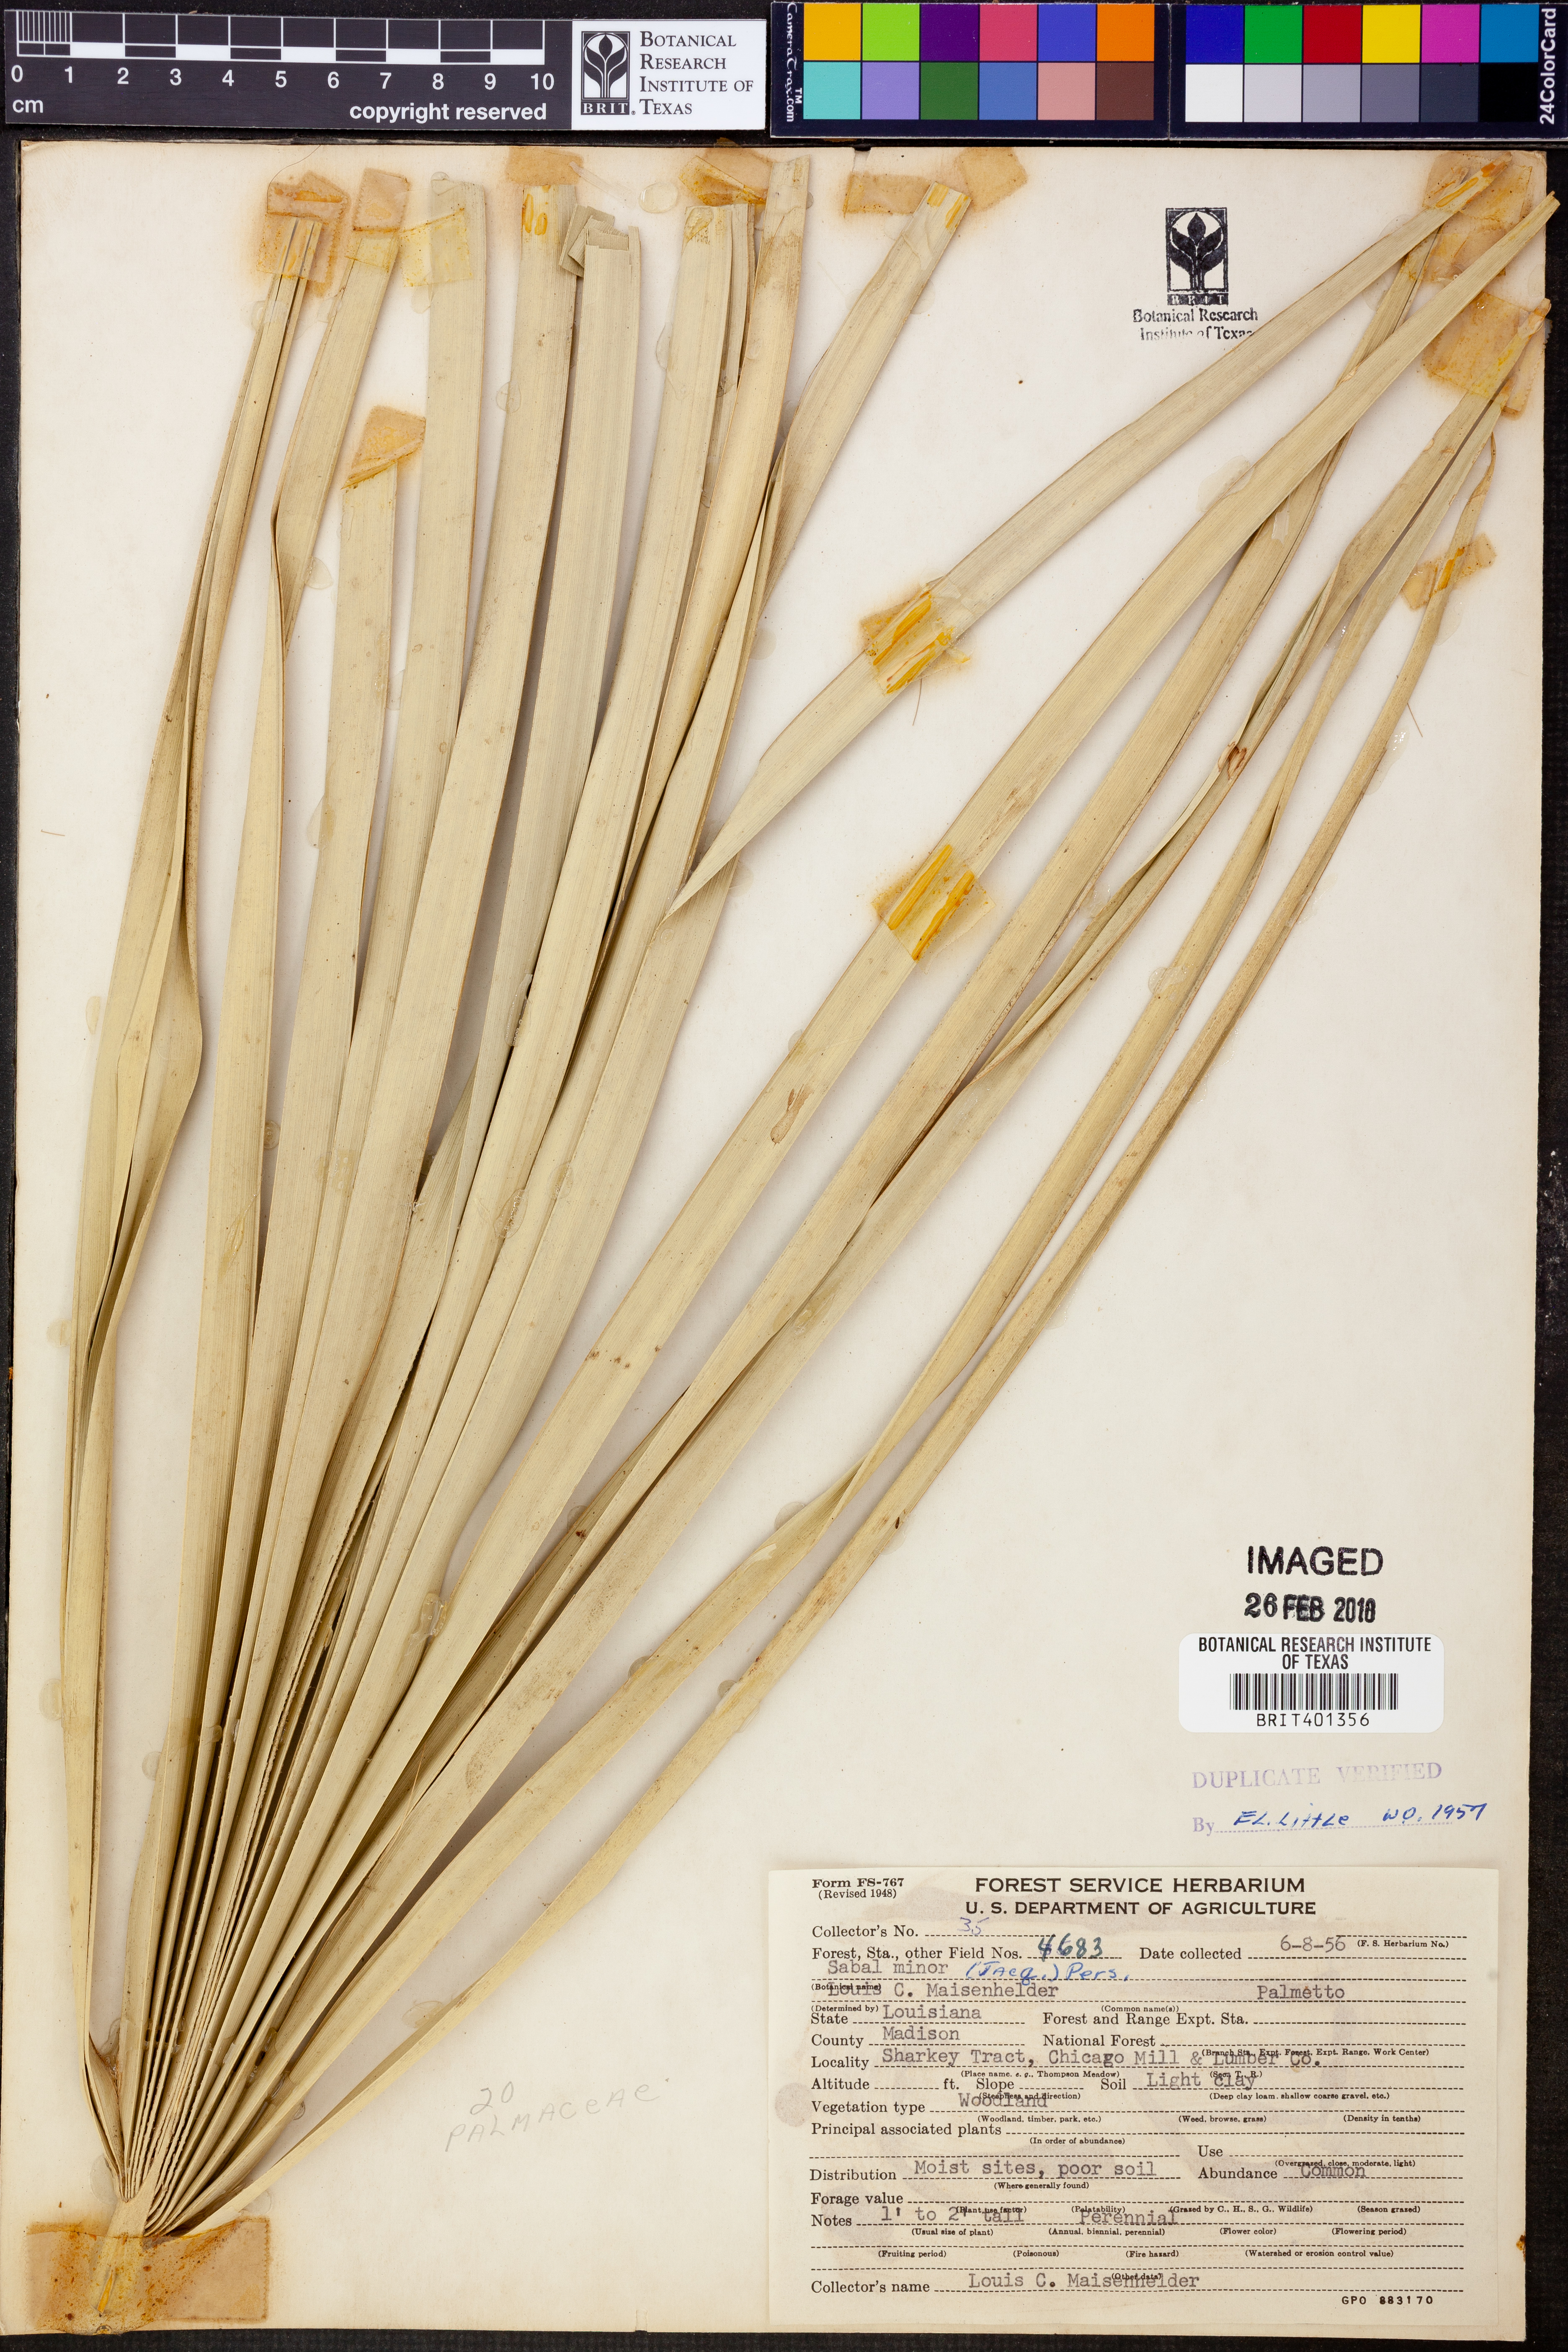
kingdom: Plantae
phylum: Tracheophyta
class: Liliopsida
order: Arecales
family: Arecaceae
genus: Sabal
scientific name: Sabal minor
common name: Dwarf palmetto
